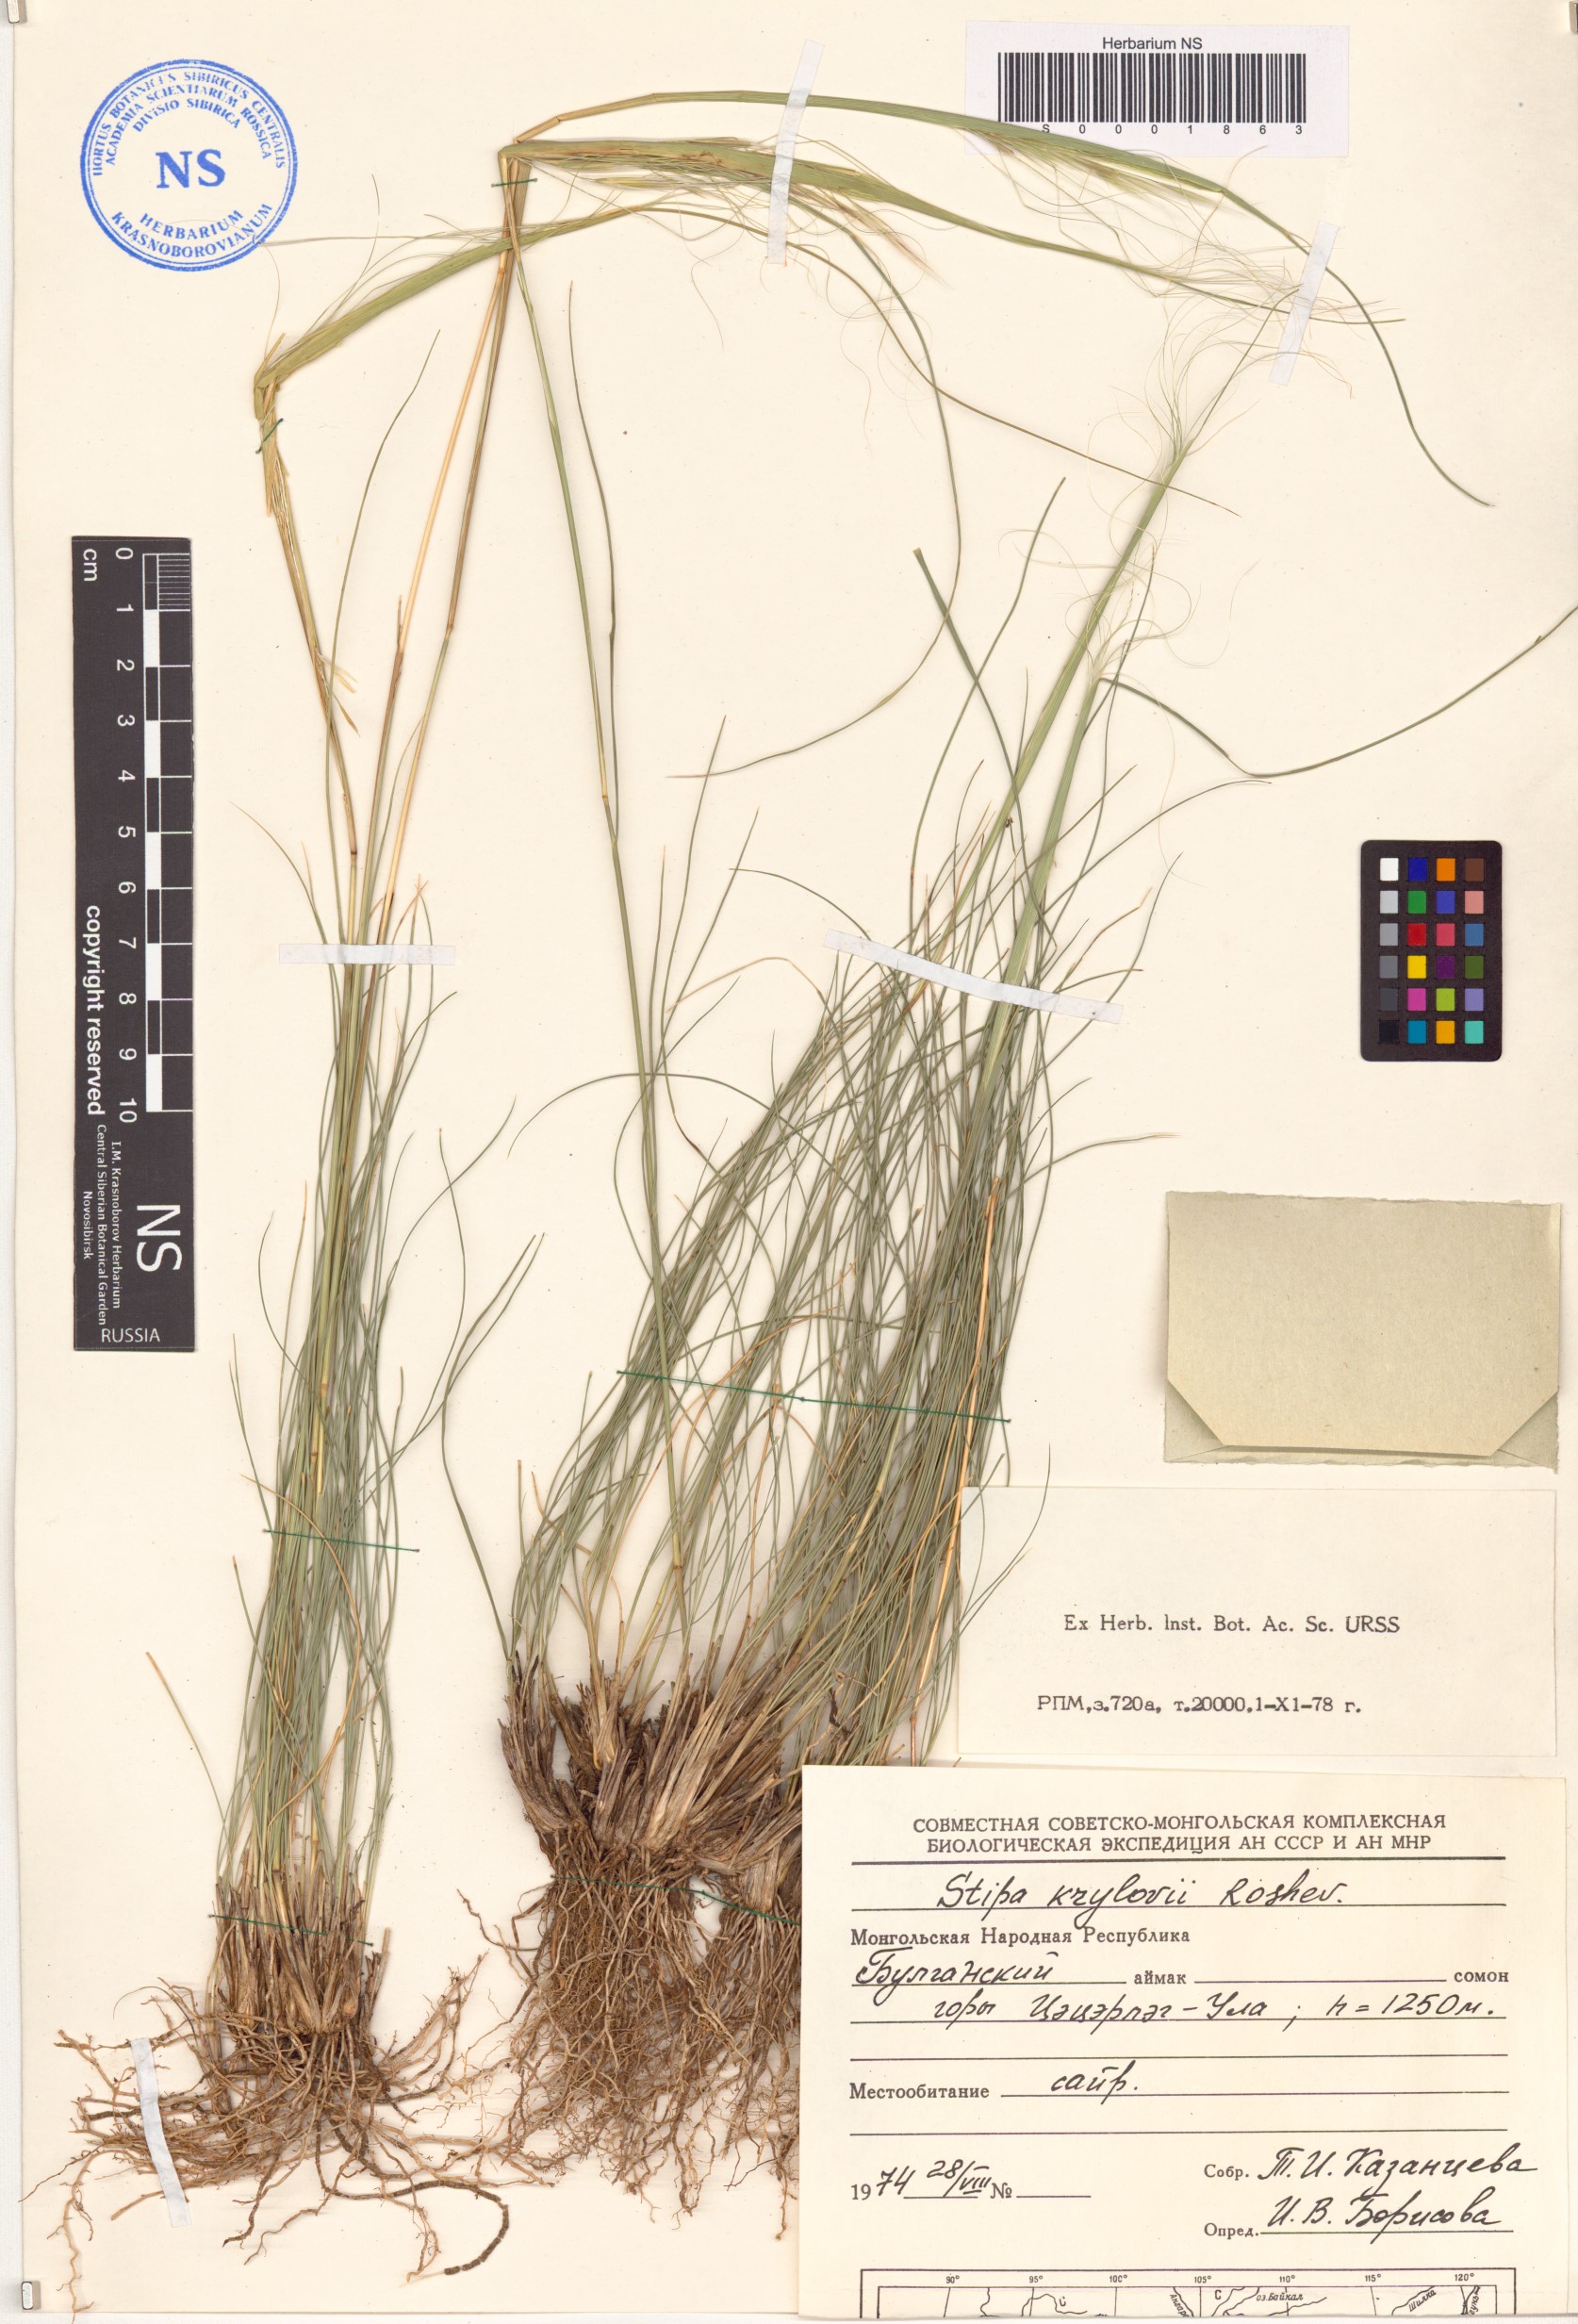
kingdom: Plantae
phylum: Tracheophyta
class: Liliopsida
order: Poales
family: Poaceae
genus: Stipa
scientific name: Stipa krylovii
